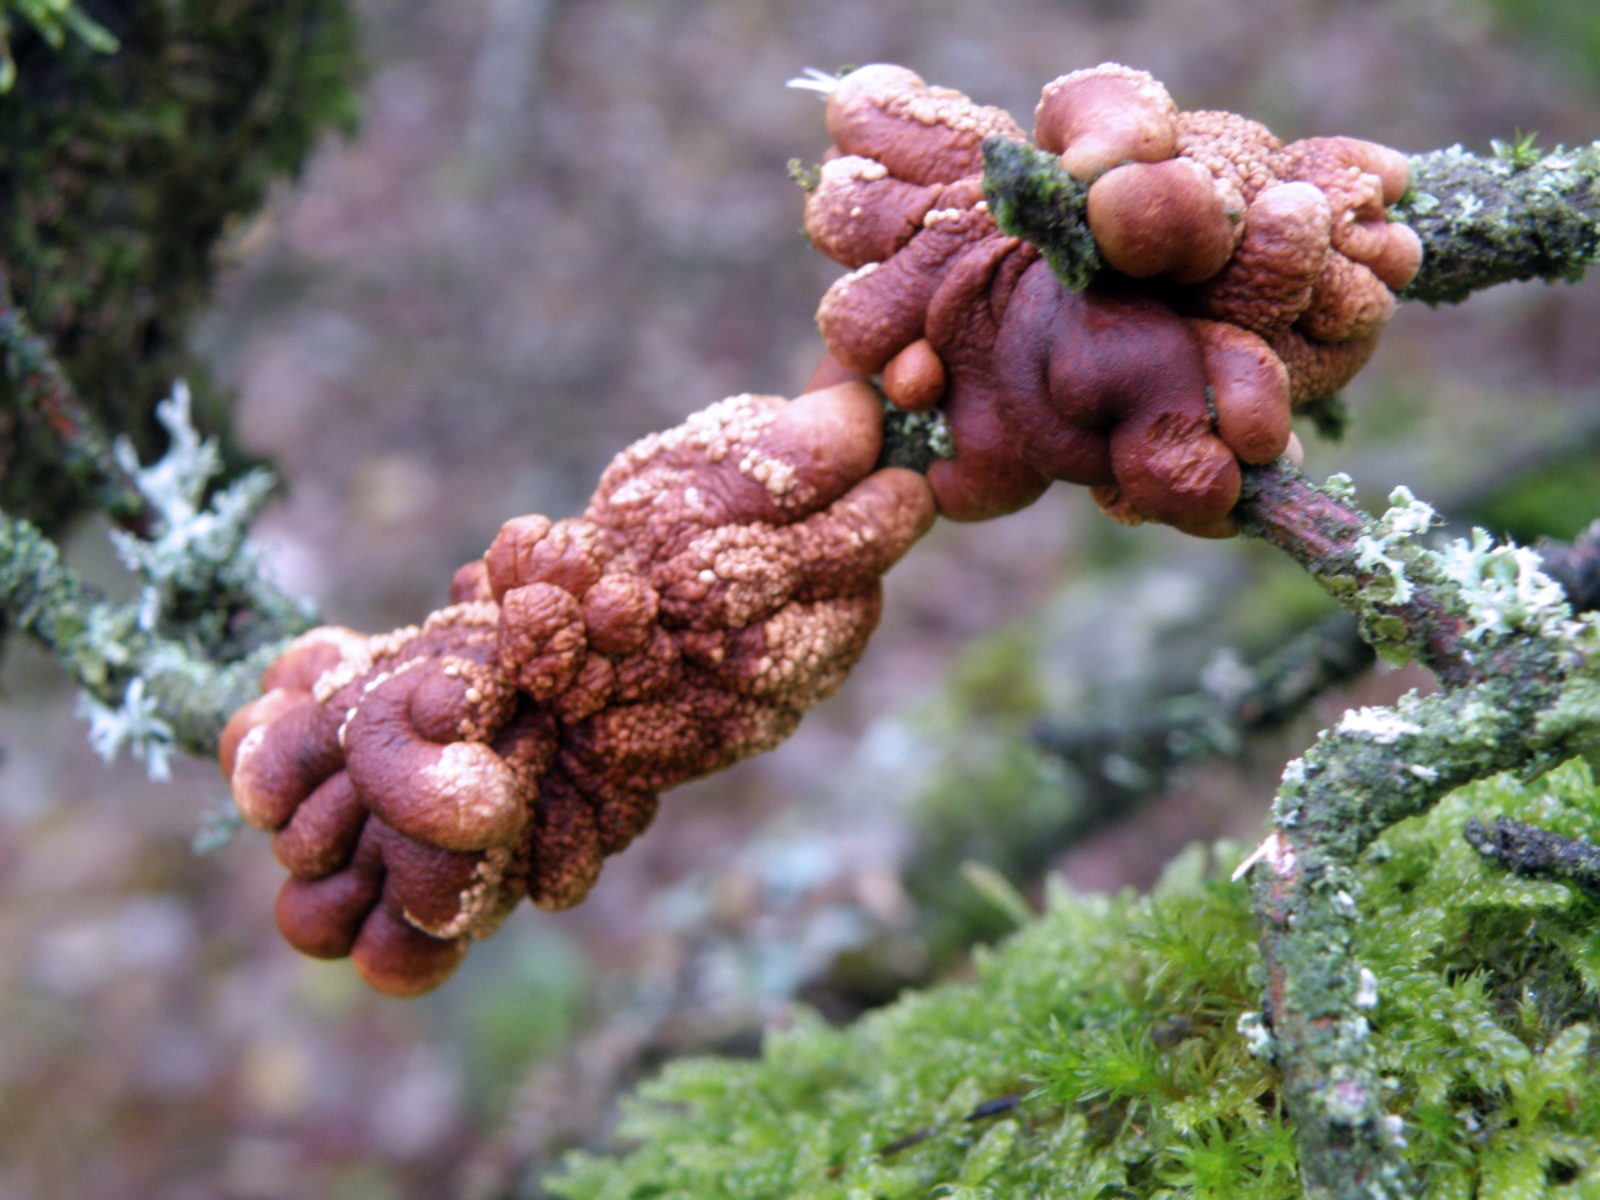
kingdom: Fungi
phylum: Ascomycota
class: Sordariomycetes
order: Hypocreales
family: Hypocreaceae
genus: Hypocreopsis
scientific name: Hypocreopsis lichenoides
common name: pilfinger
